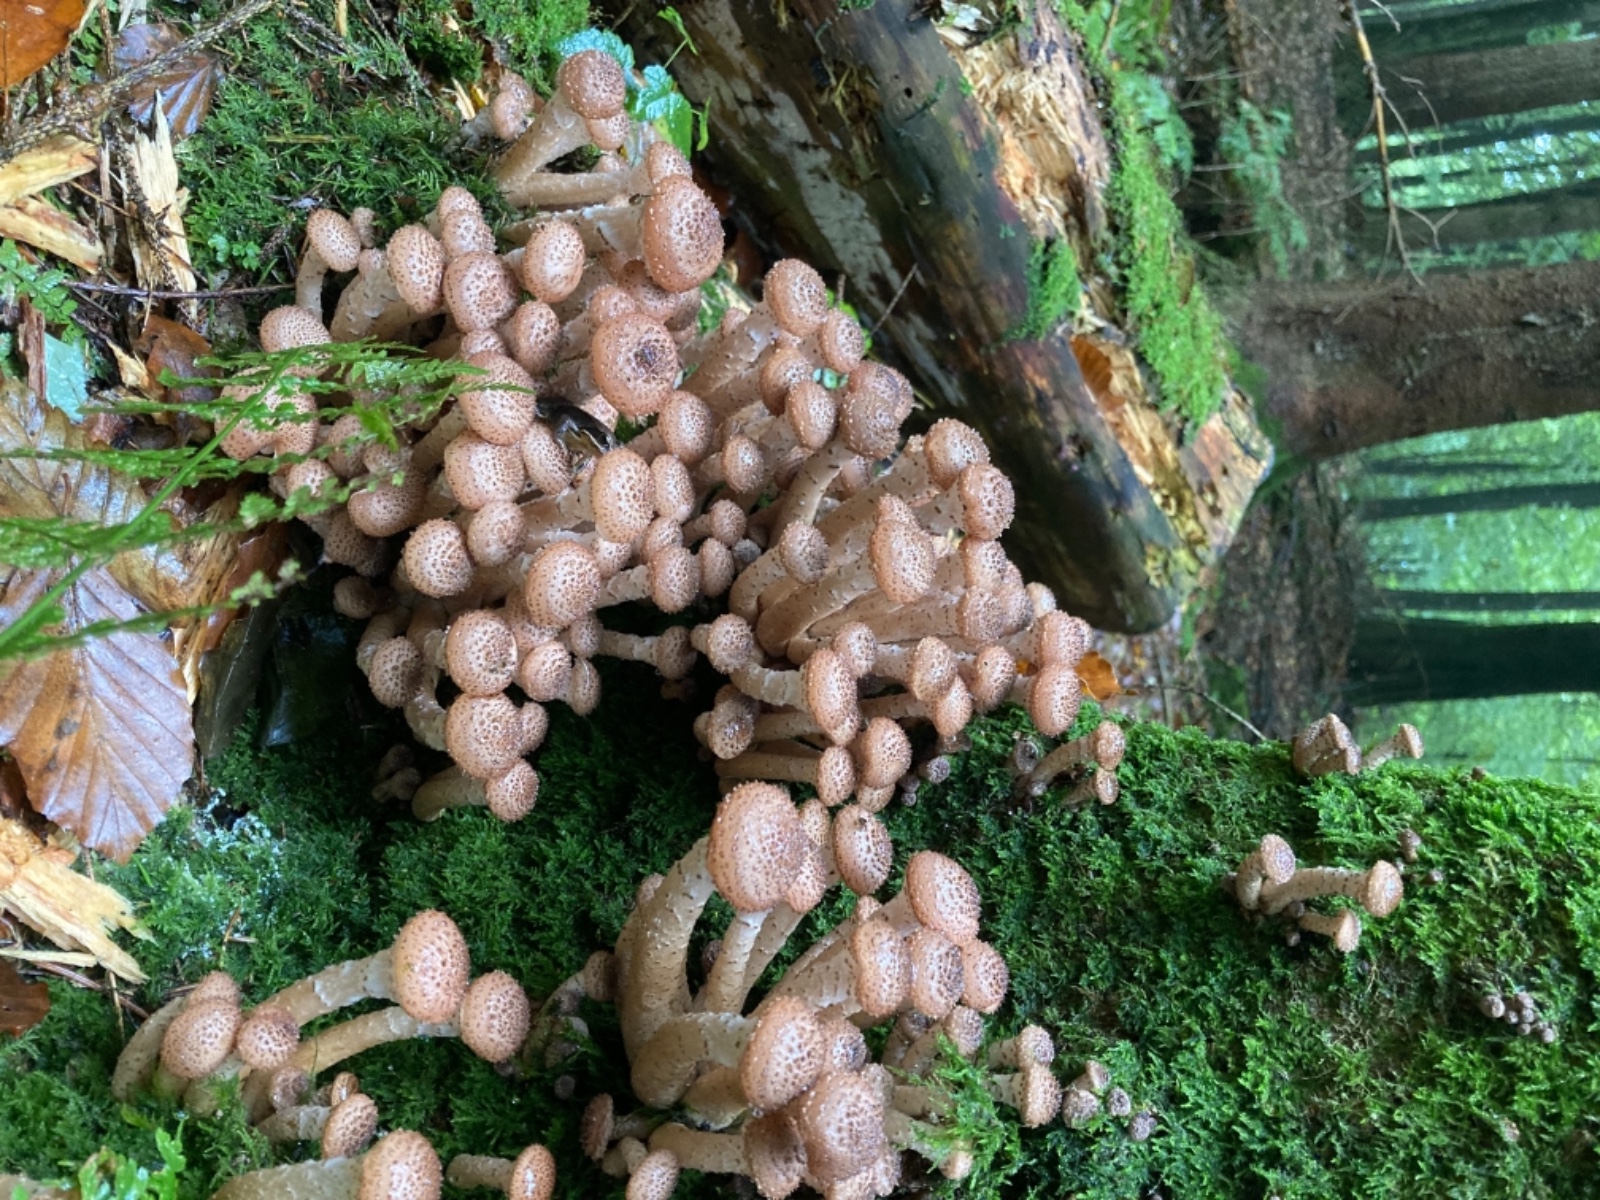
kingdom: Fungi
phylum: Basidiomycota
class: Agaricomycetes
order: Agaricales
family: Physalacriaceae
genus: Armillaria
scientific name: Armillaria ostoyae
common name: mørk honningsvamp
